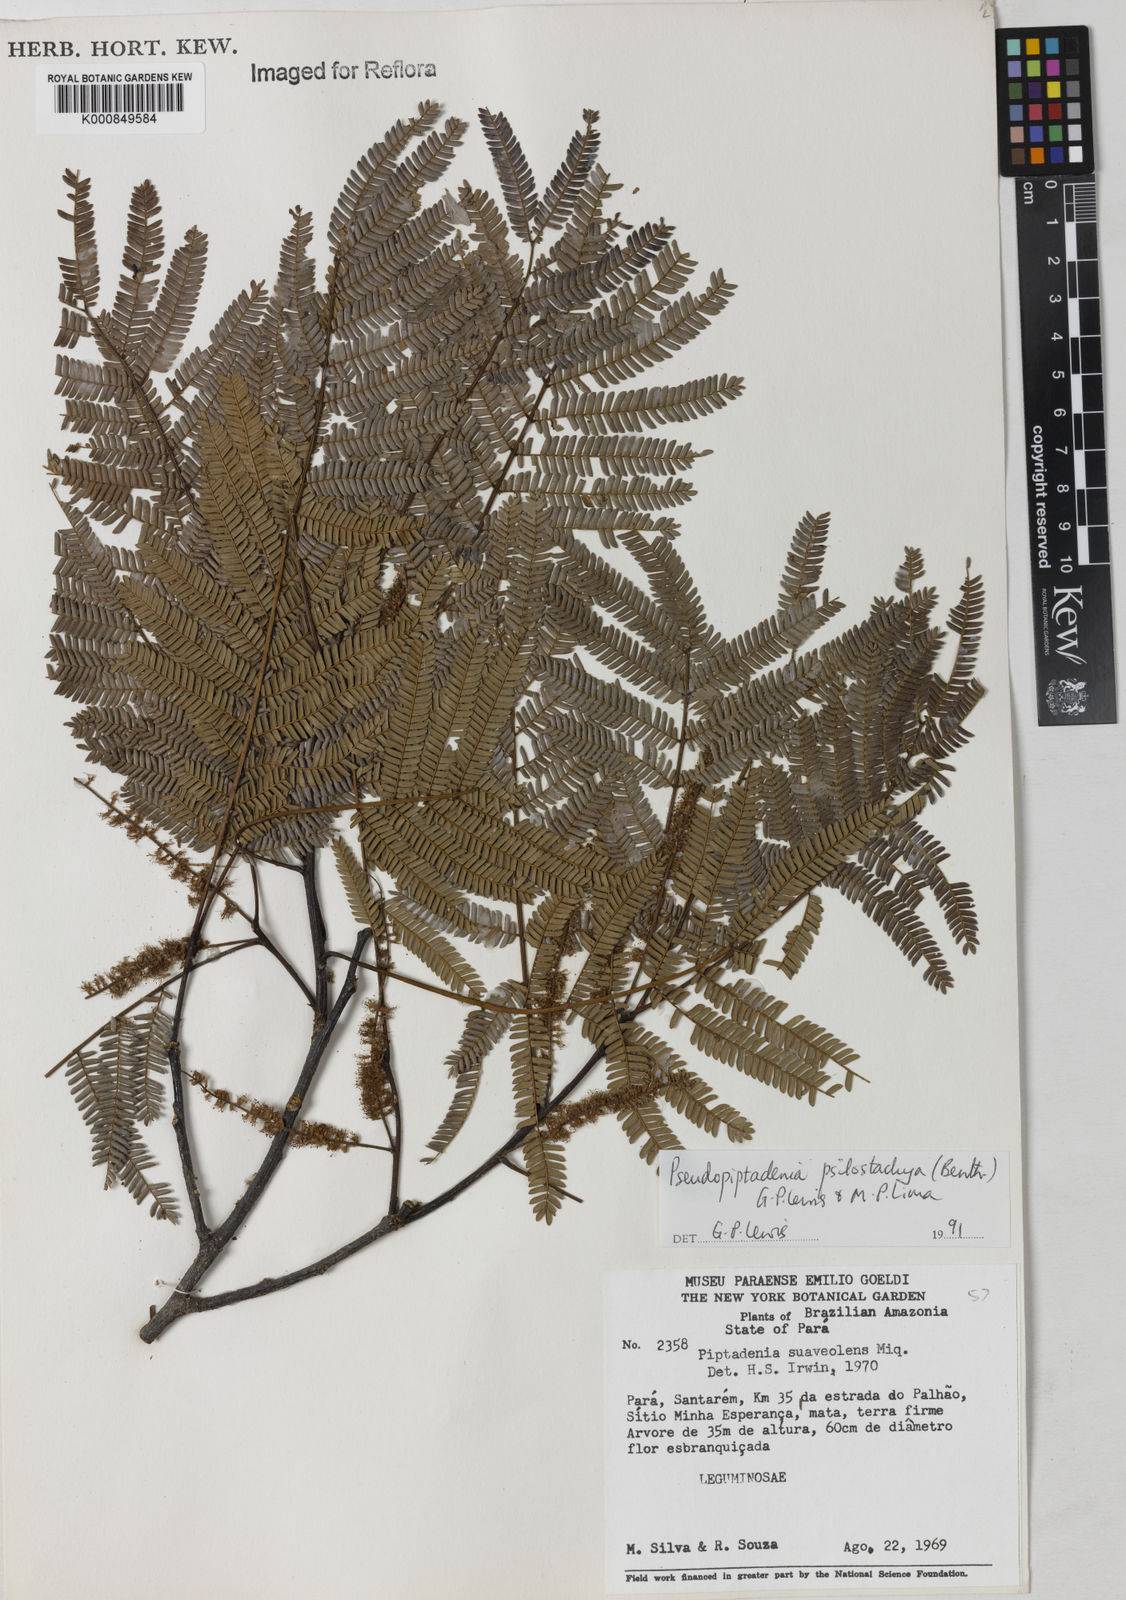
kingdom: Plantae
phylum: Tracheophyta
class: Magnoliopsida
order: Fabales
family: Fabaceae
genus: Pseudopiptadenia
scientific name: Pseudopiptadenia psilostachya
